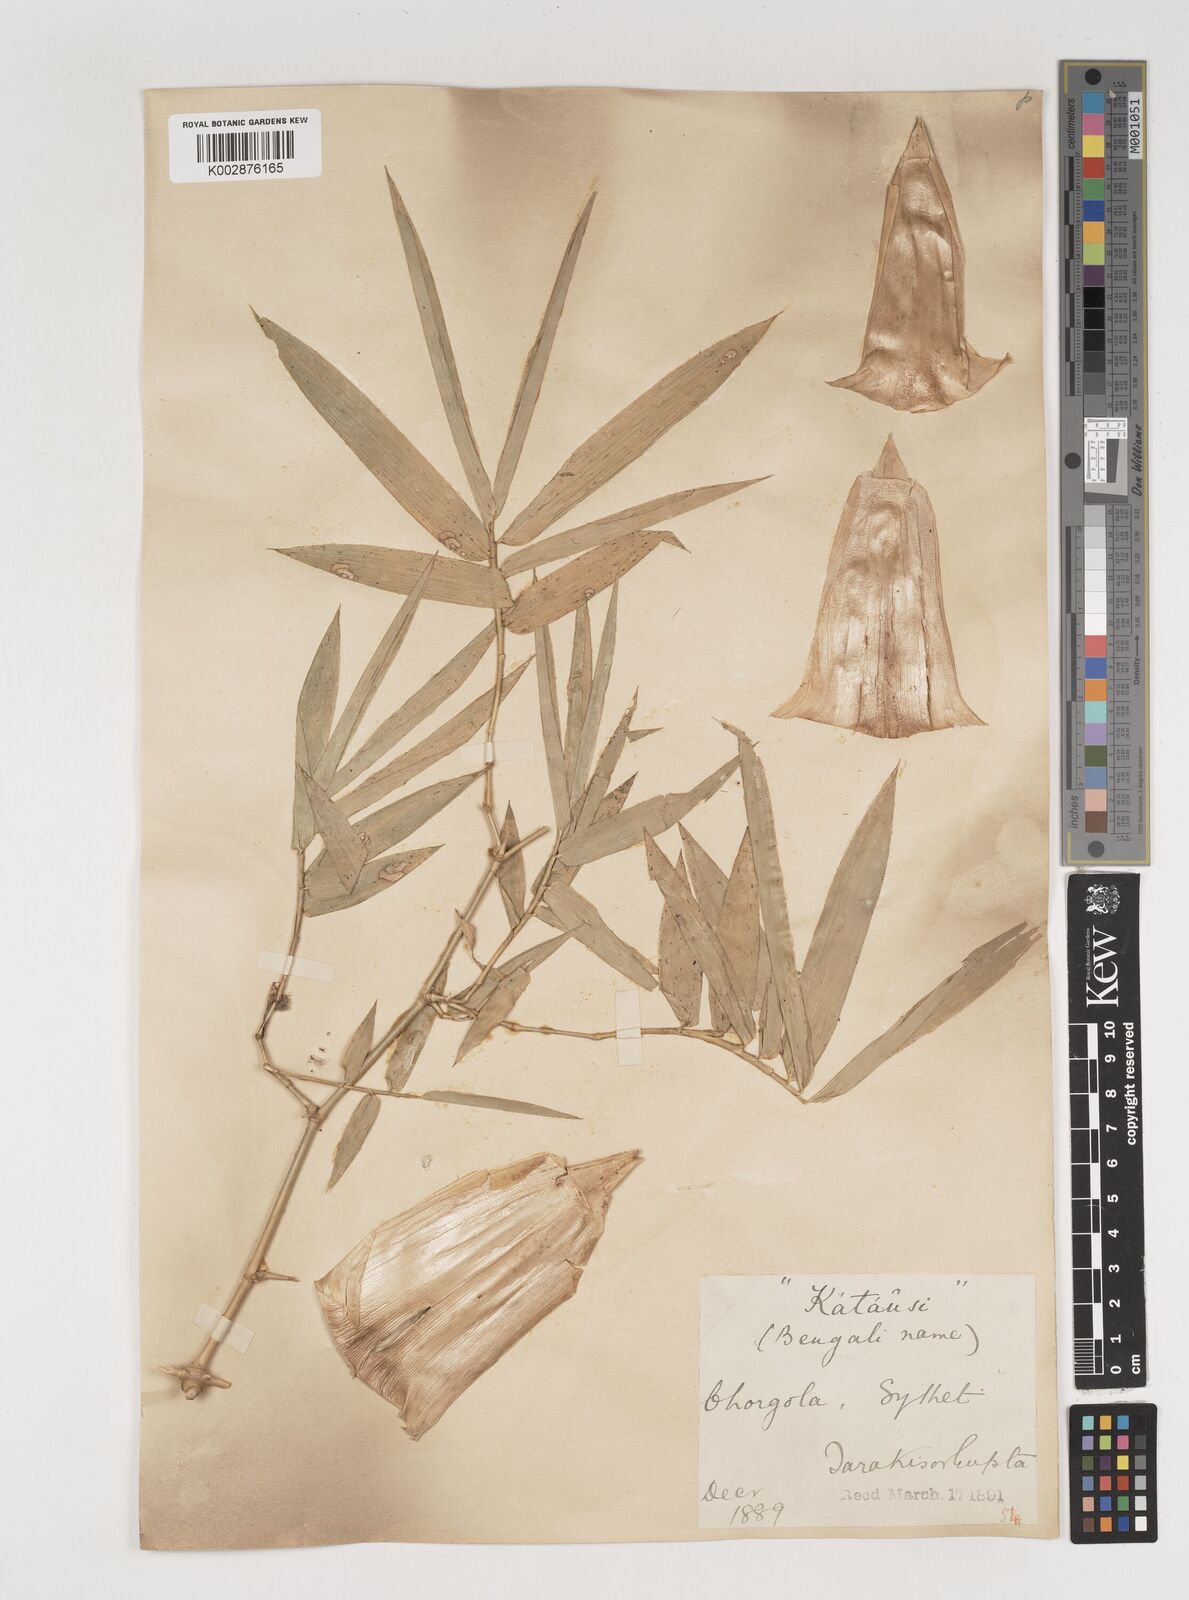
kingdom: Plantae
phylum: Tracheophyta
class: Liliopsida
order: Poales
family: Poaceae
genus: Bambusa
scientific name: Bambusa bambos
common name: Indian thorny bamboo
